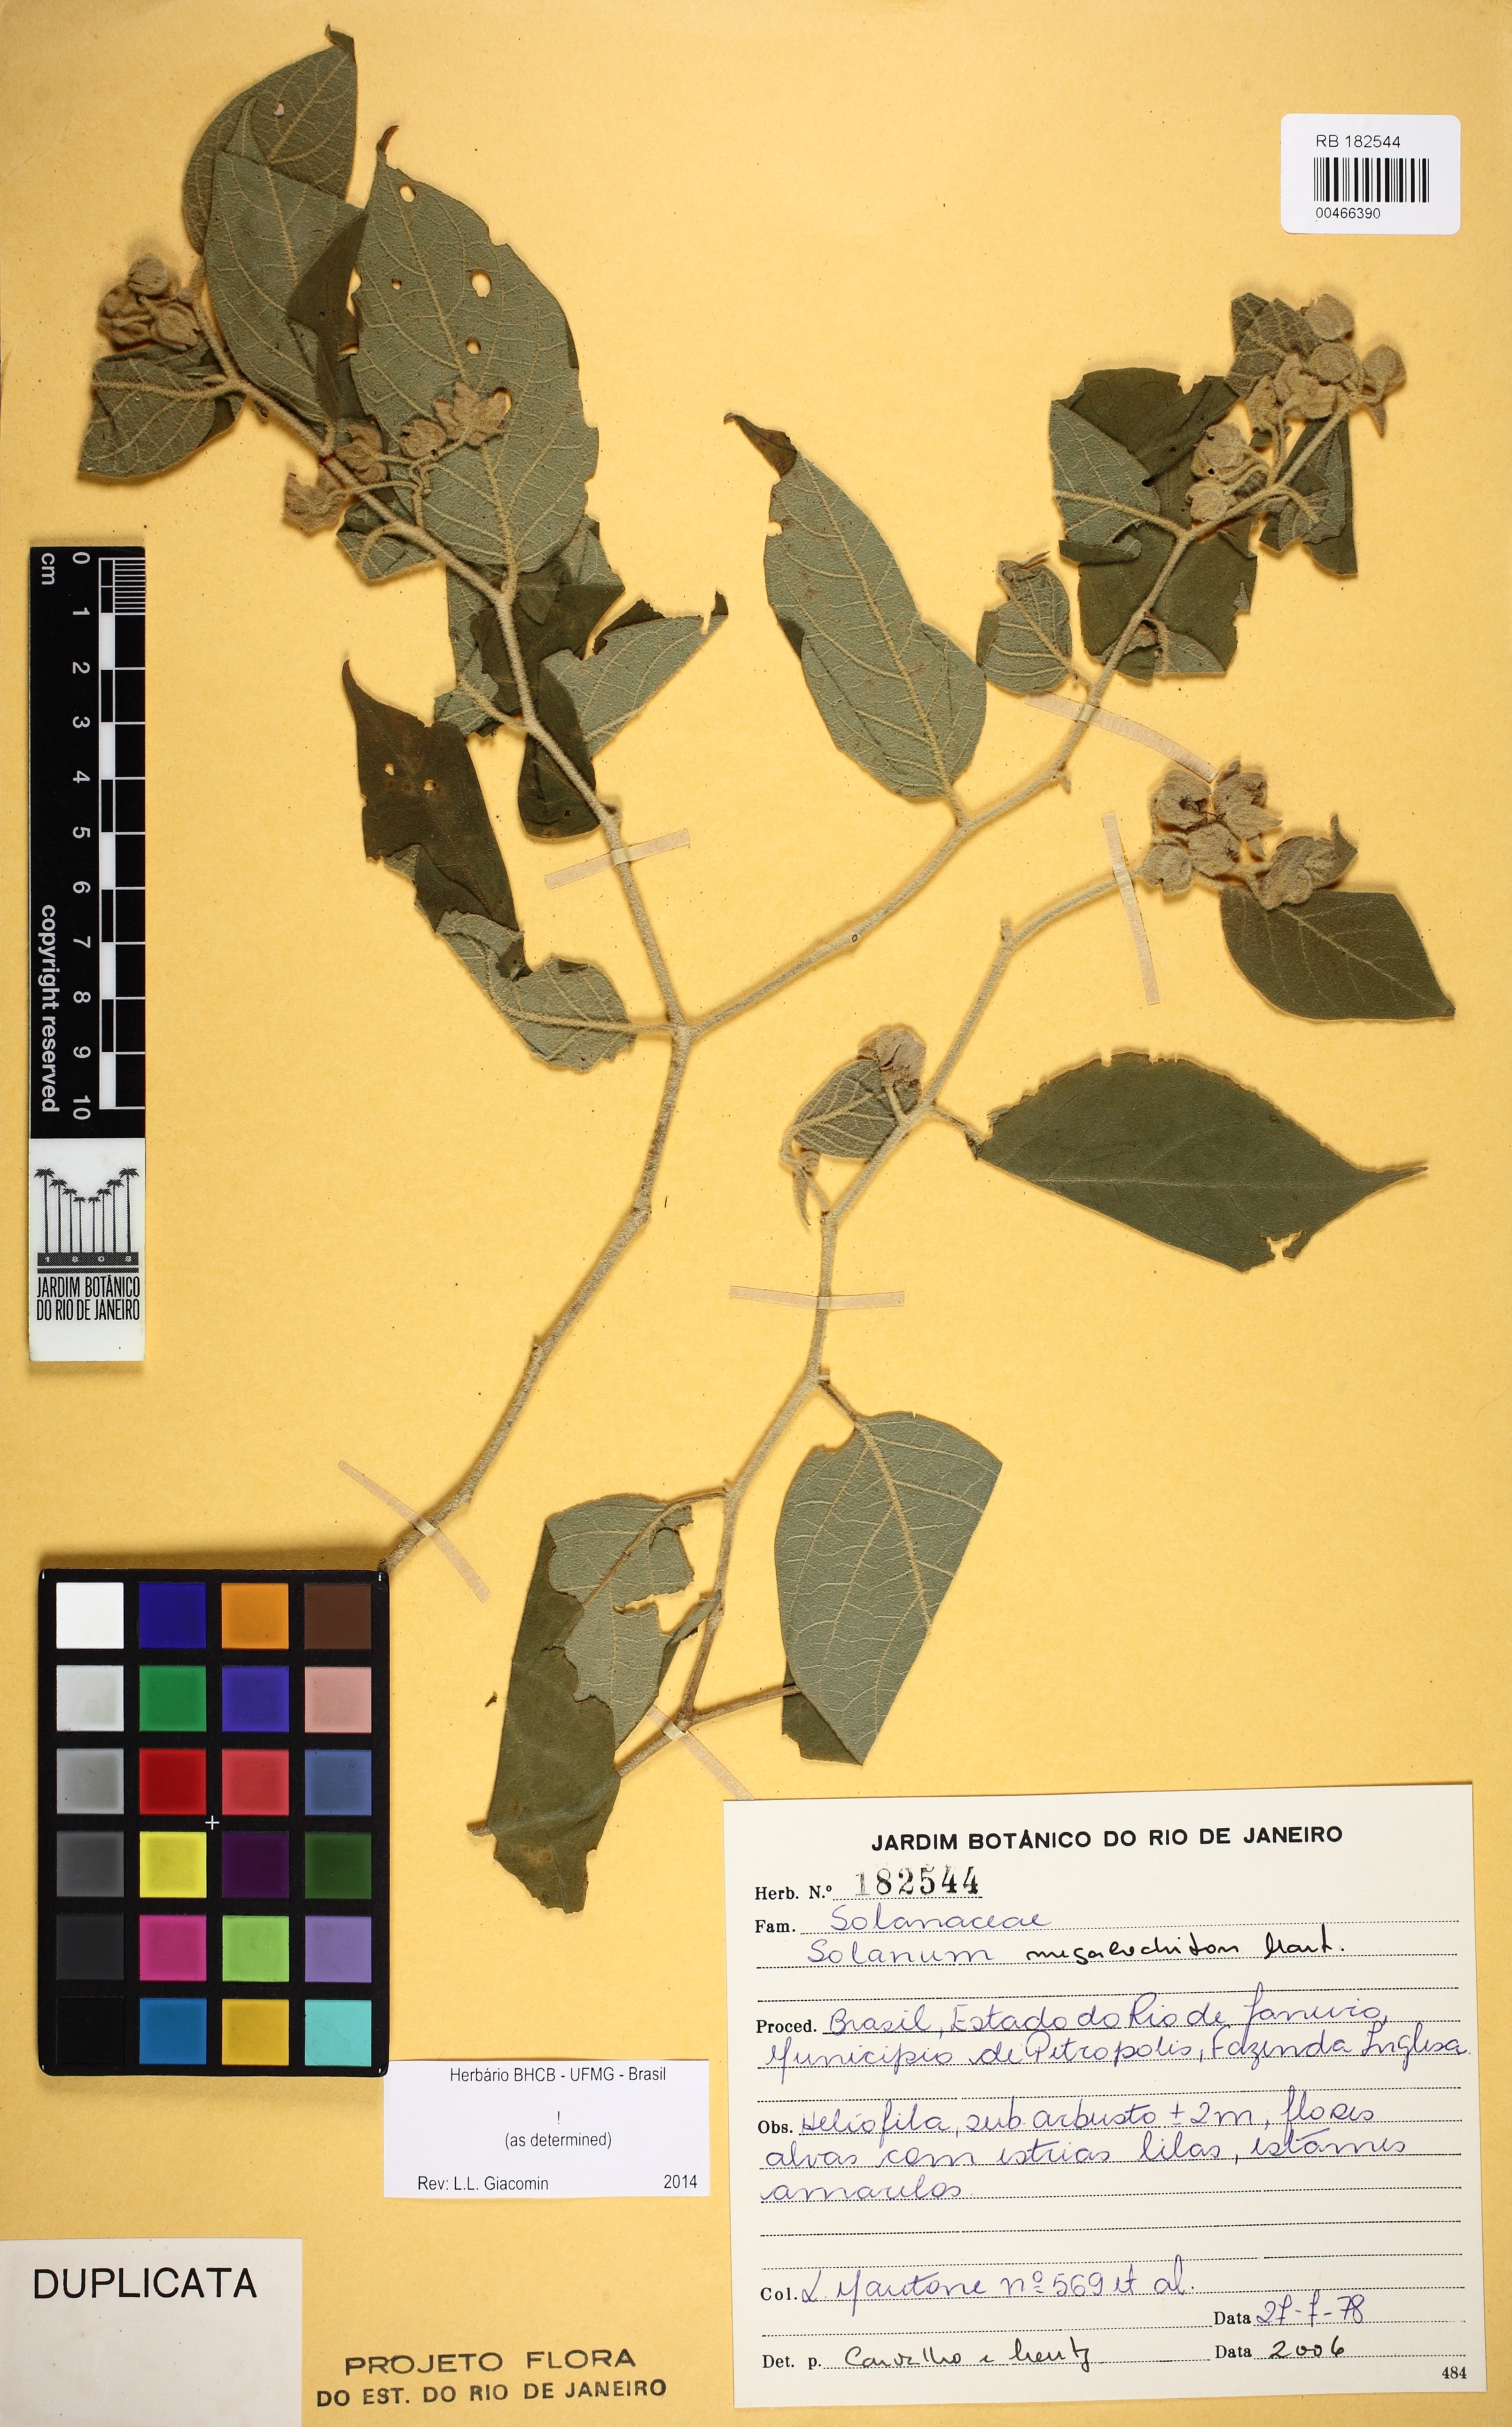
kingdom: Plantae
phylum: Tracheophyta
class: Magnoliopsida
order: Solanales
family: Solanaceae
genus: Solanum
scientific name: Solanum megalochiton
